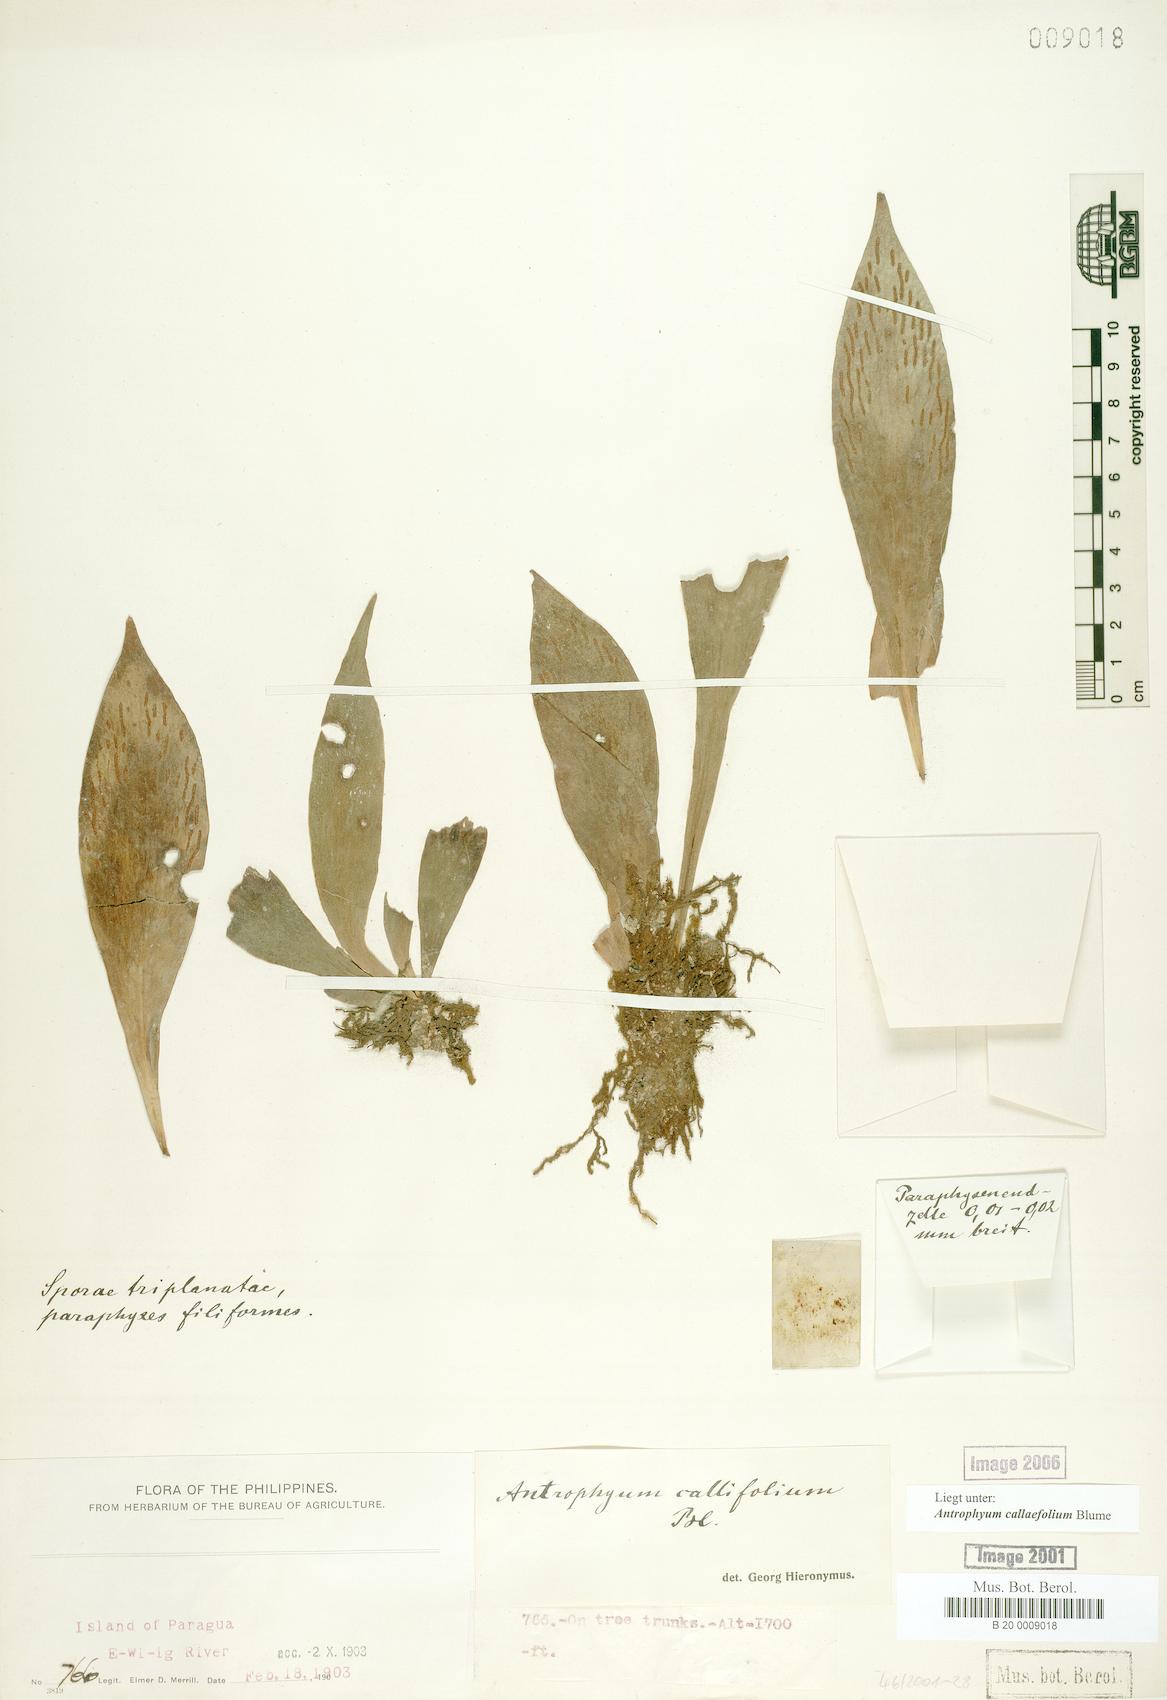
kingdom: Plantae
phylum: Tracheophyta
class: Polypodiopsida
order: Polypodiales
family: Pteridaceae
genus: Antrophyum
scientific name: Antrophyum callifolium
